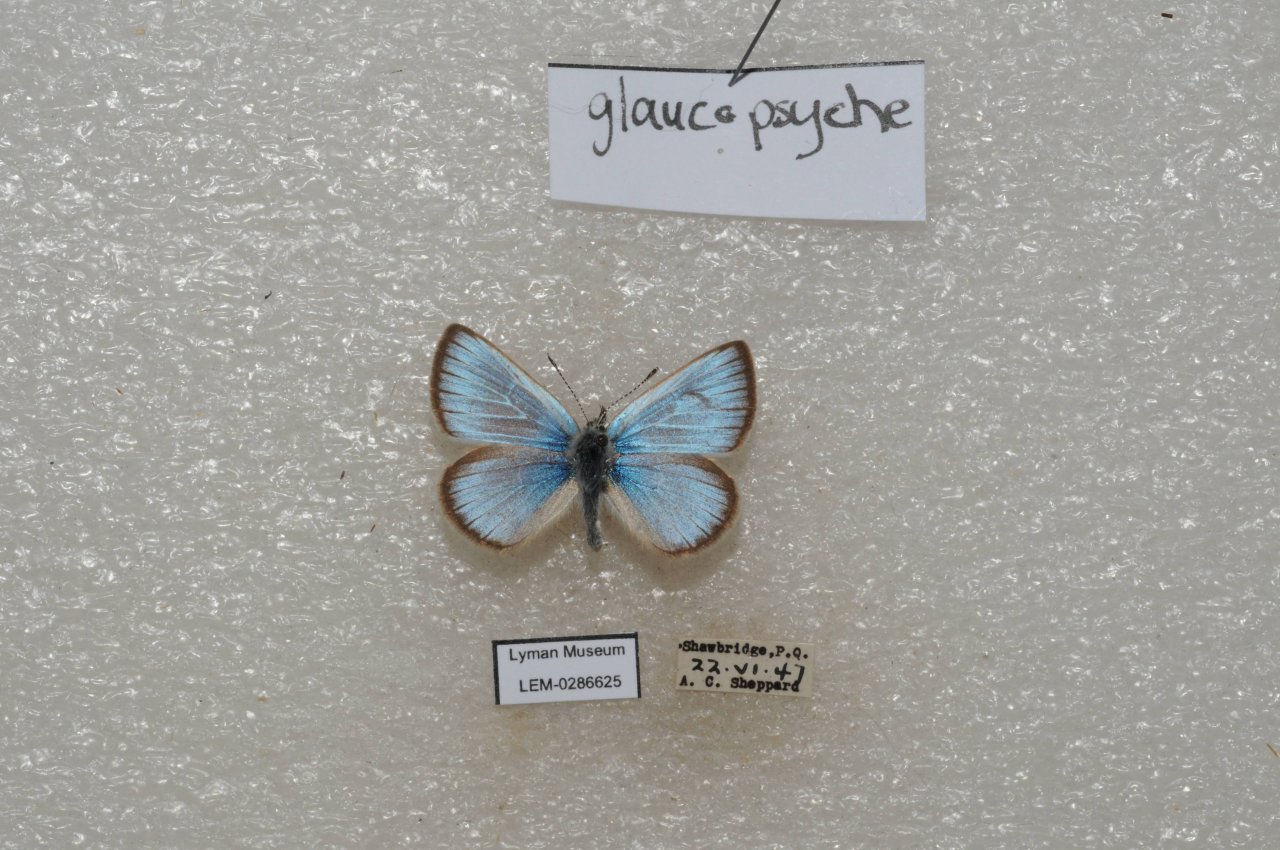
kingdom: Animalia
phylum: Arthropoda
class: Insecta
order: Lepidoptera
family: Lycaenidae
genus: Glaucopsyche
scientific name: Glaucopsyche lygdamus
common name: Silvery Blue
